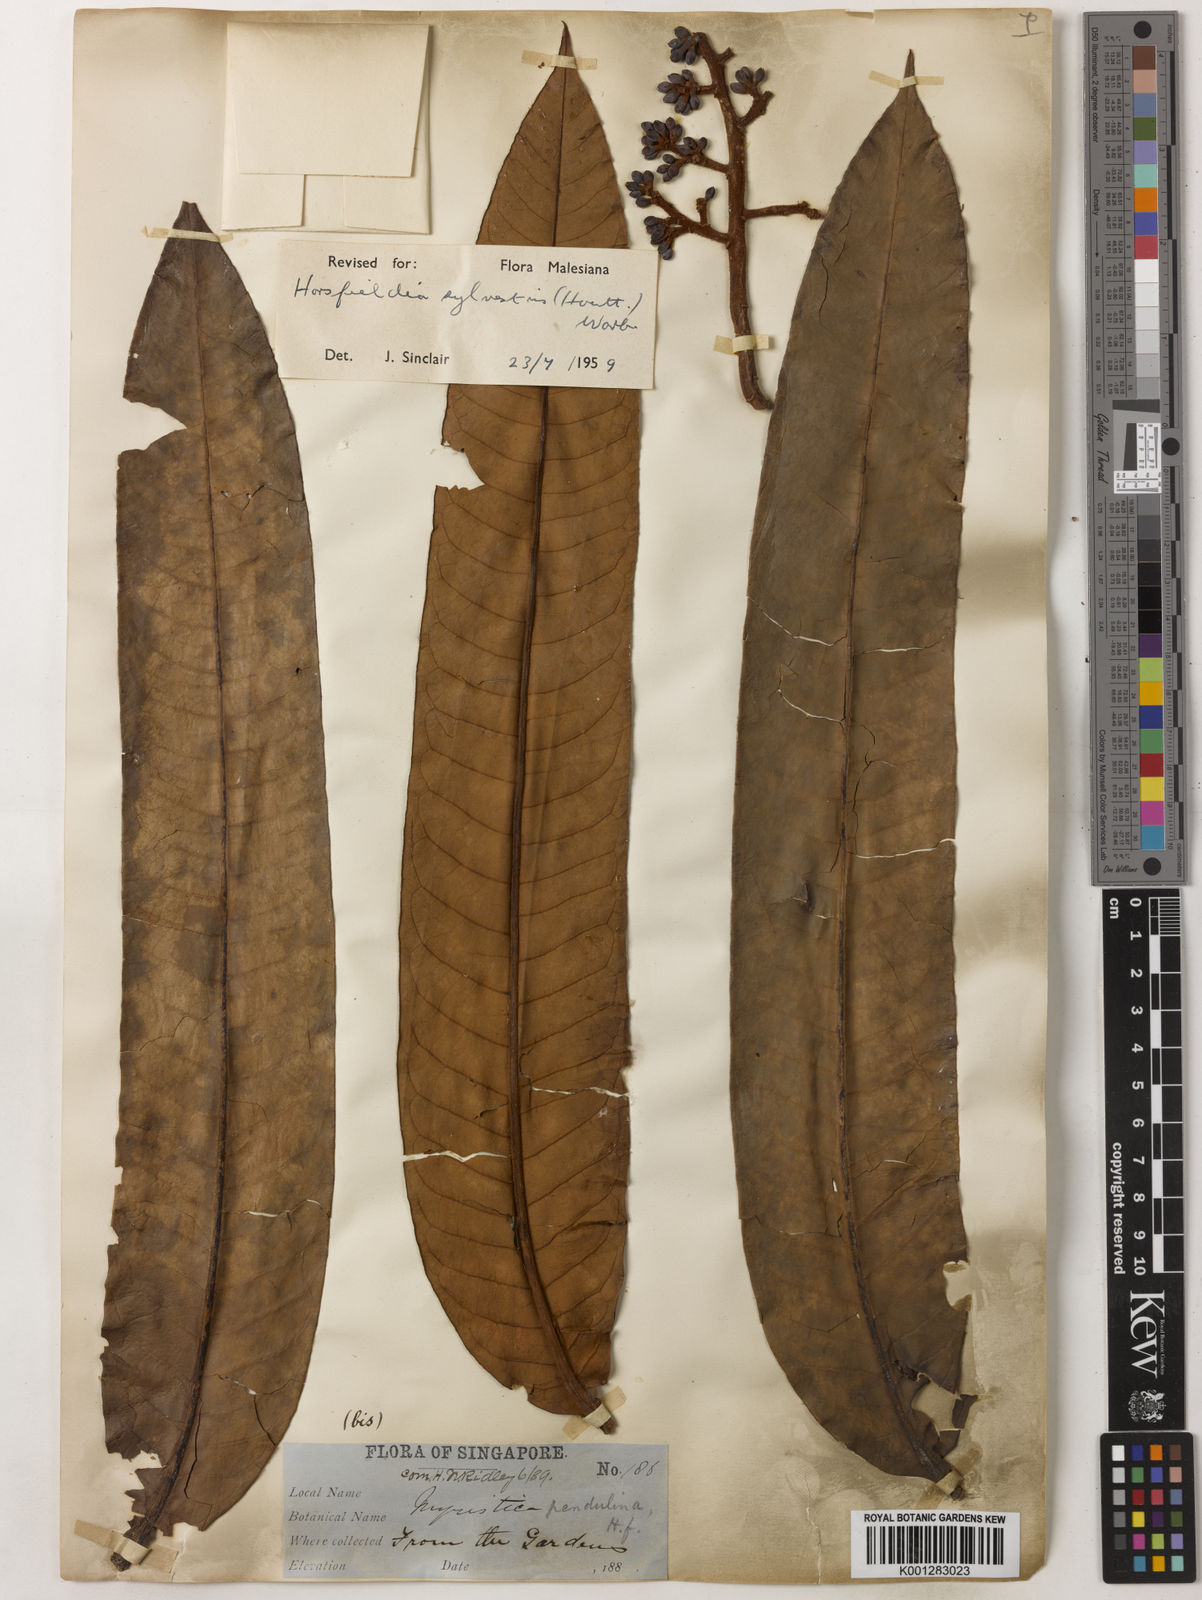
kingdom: Plantae
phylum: Tracheophyta
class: Magnoliopsida
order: Magnoliales
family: Myristicaceae
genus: Horsfieldia
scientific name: Horsfieldia sylvestris
